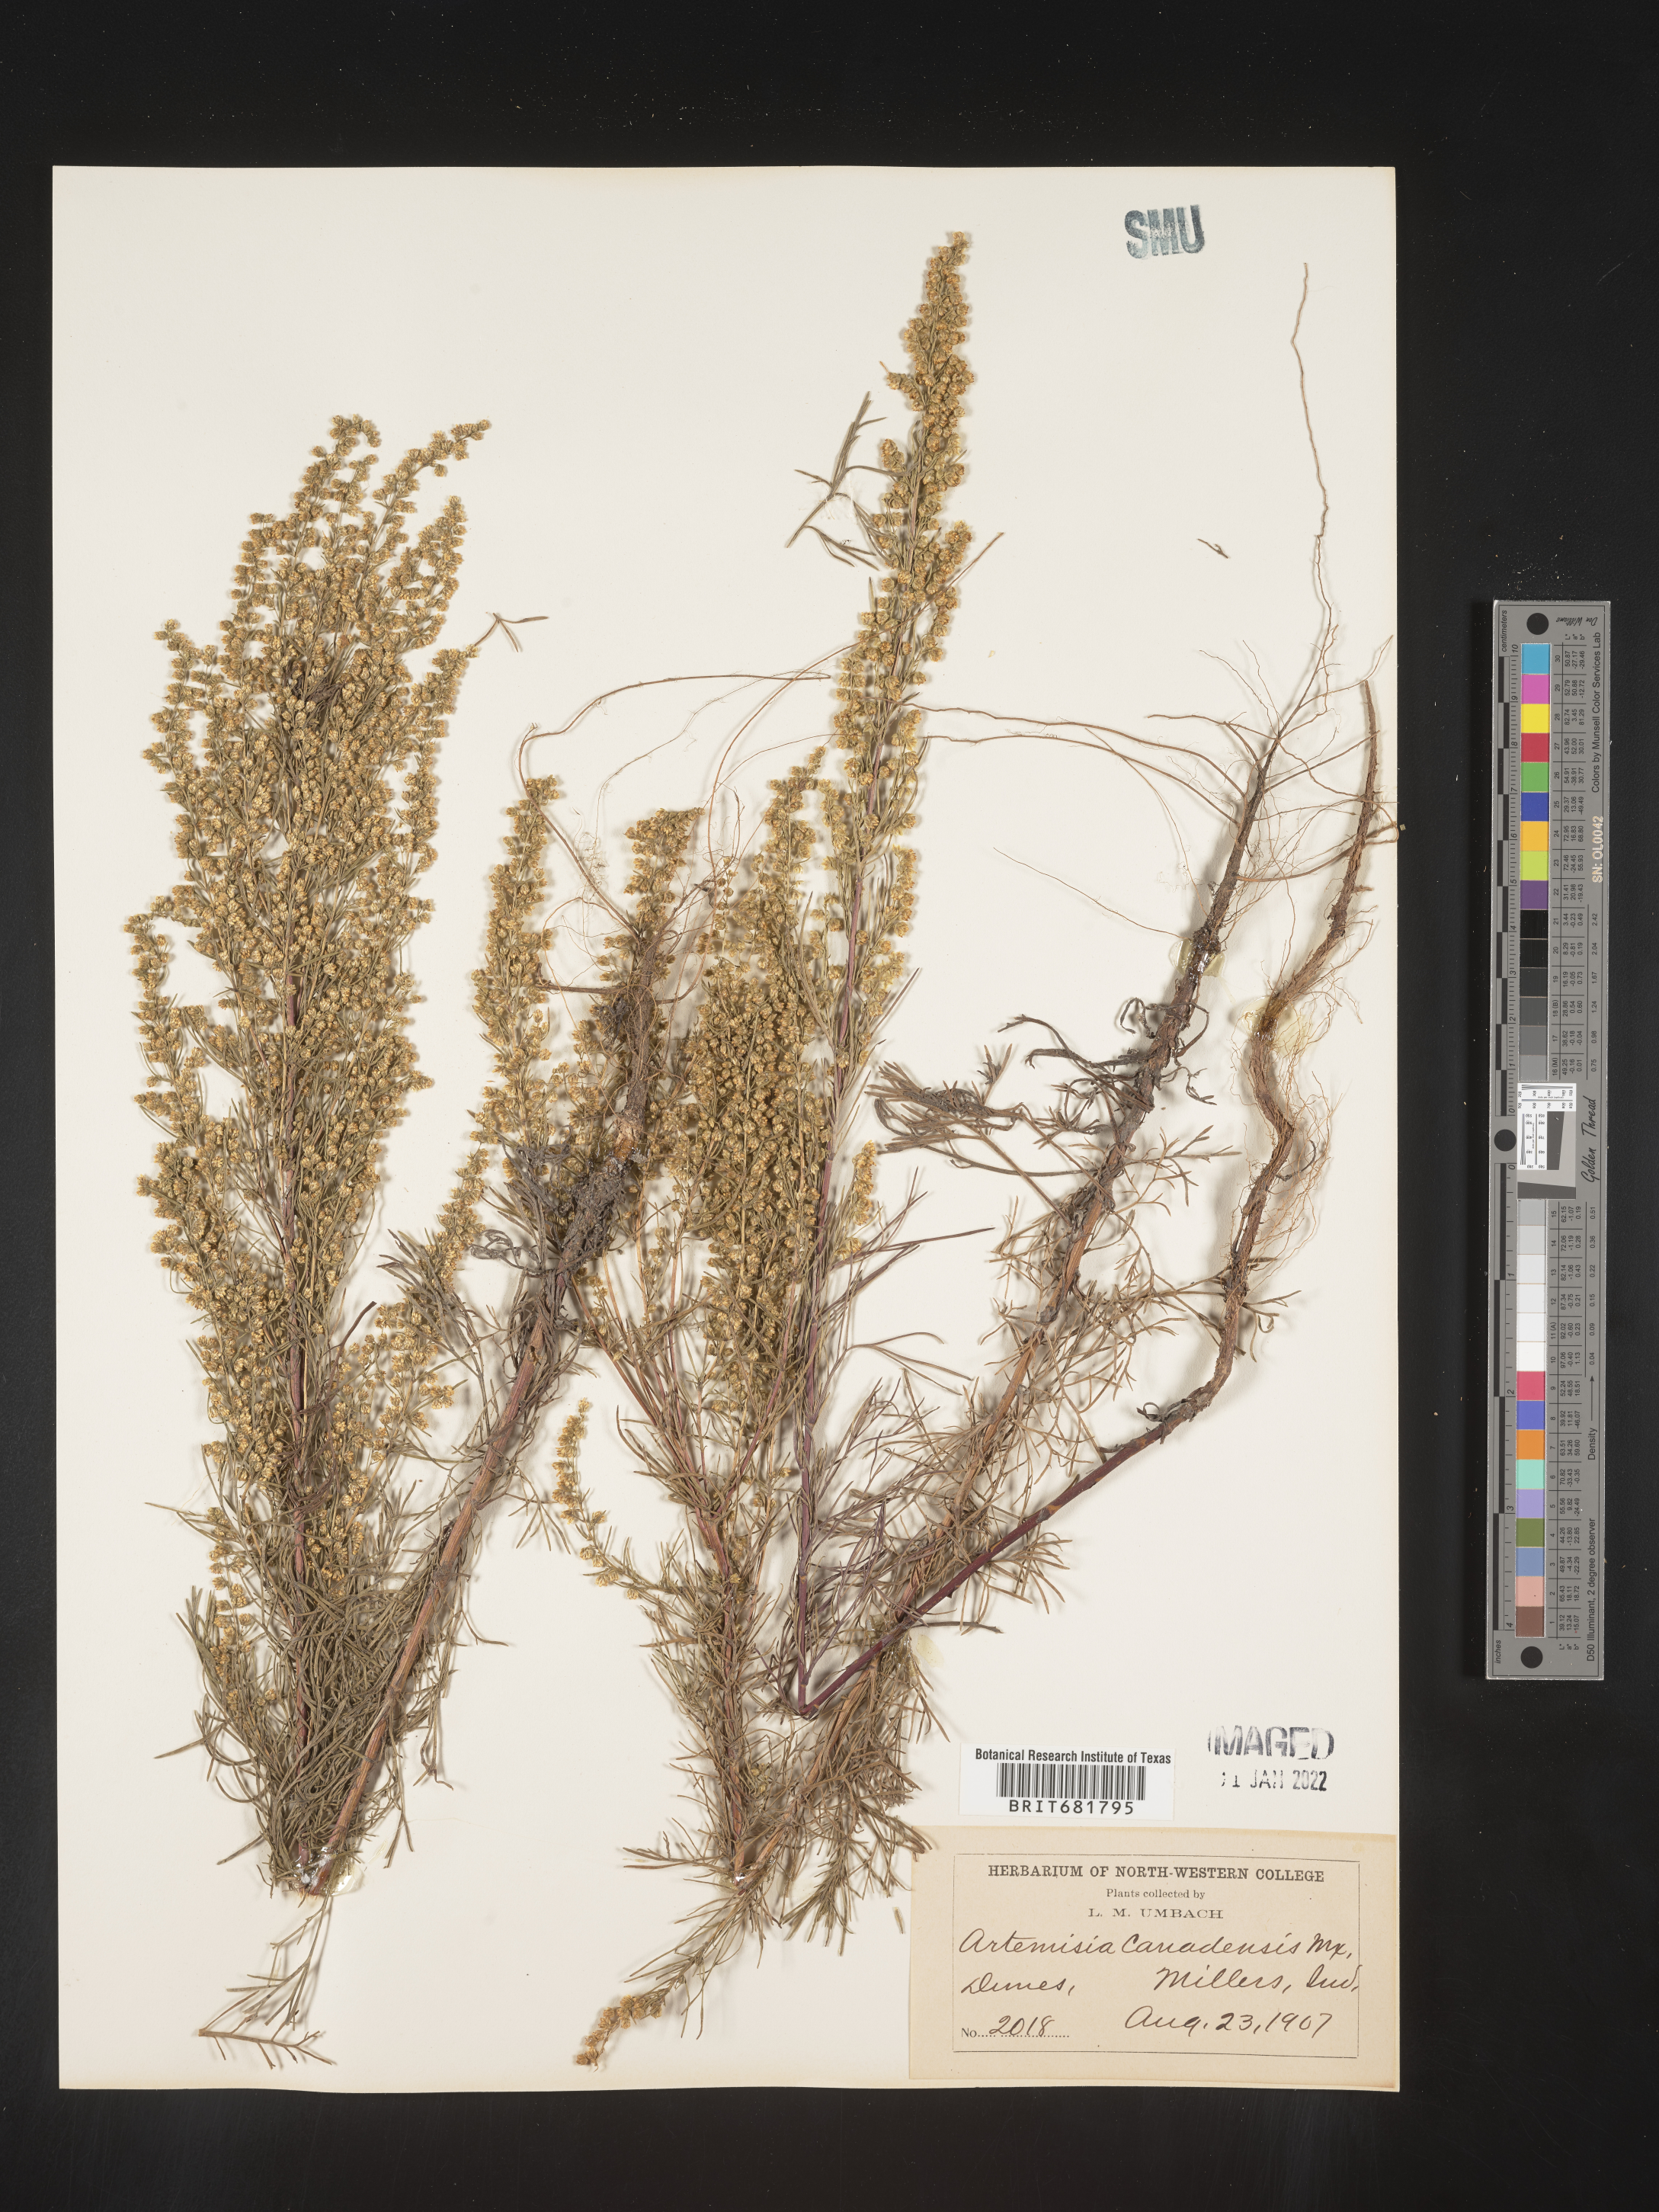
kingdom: Plantae
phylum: Tracheophyta
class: Magnoliopsida
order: Asterales
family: Asteraceae
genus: Artemisia
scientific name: Artemisia campestris
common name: Field wormwood
